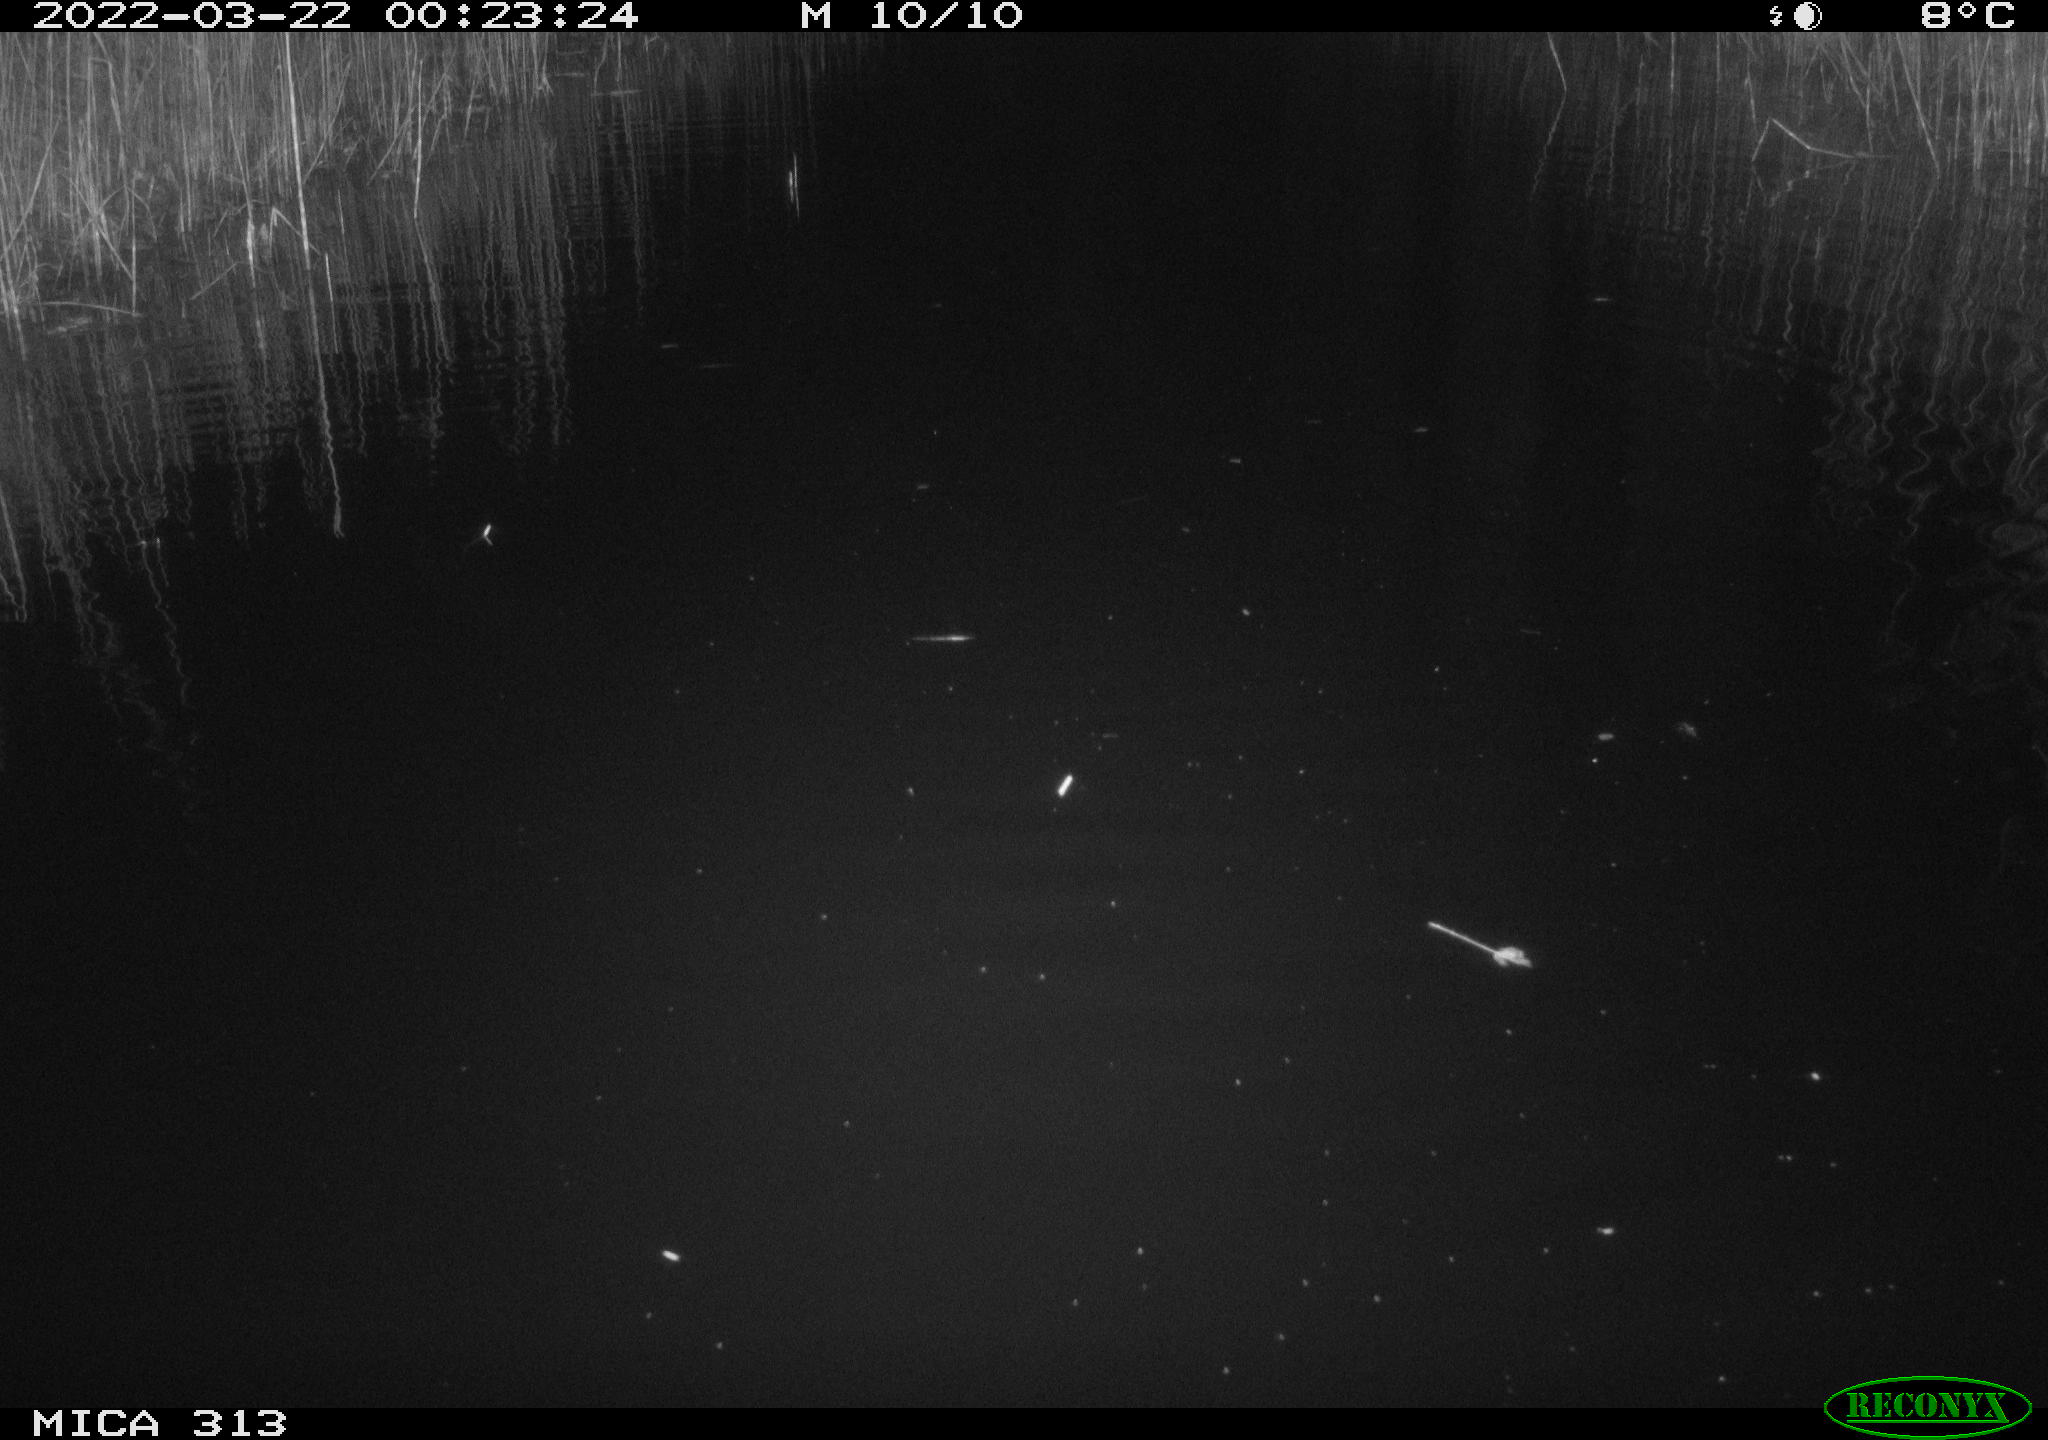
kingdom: Animalia
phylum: Chordata
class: Mammalia
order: Rodentia
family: Cricetidae
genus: Ondatra
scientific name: Ondatra zibethicus
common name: Muskrat
